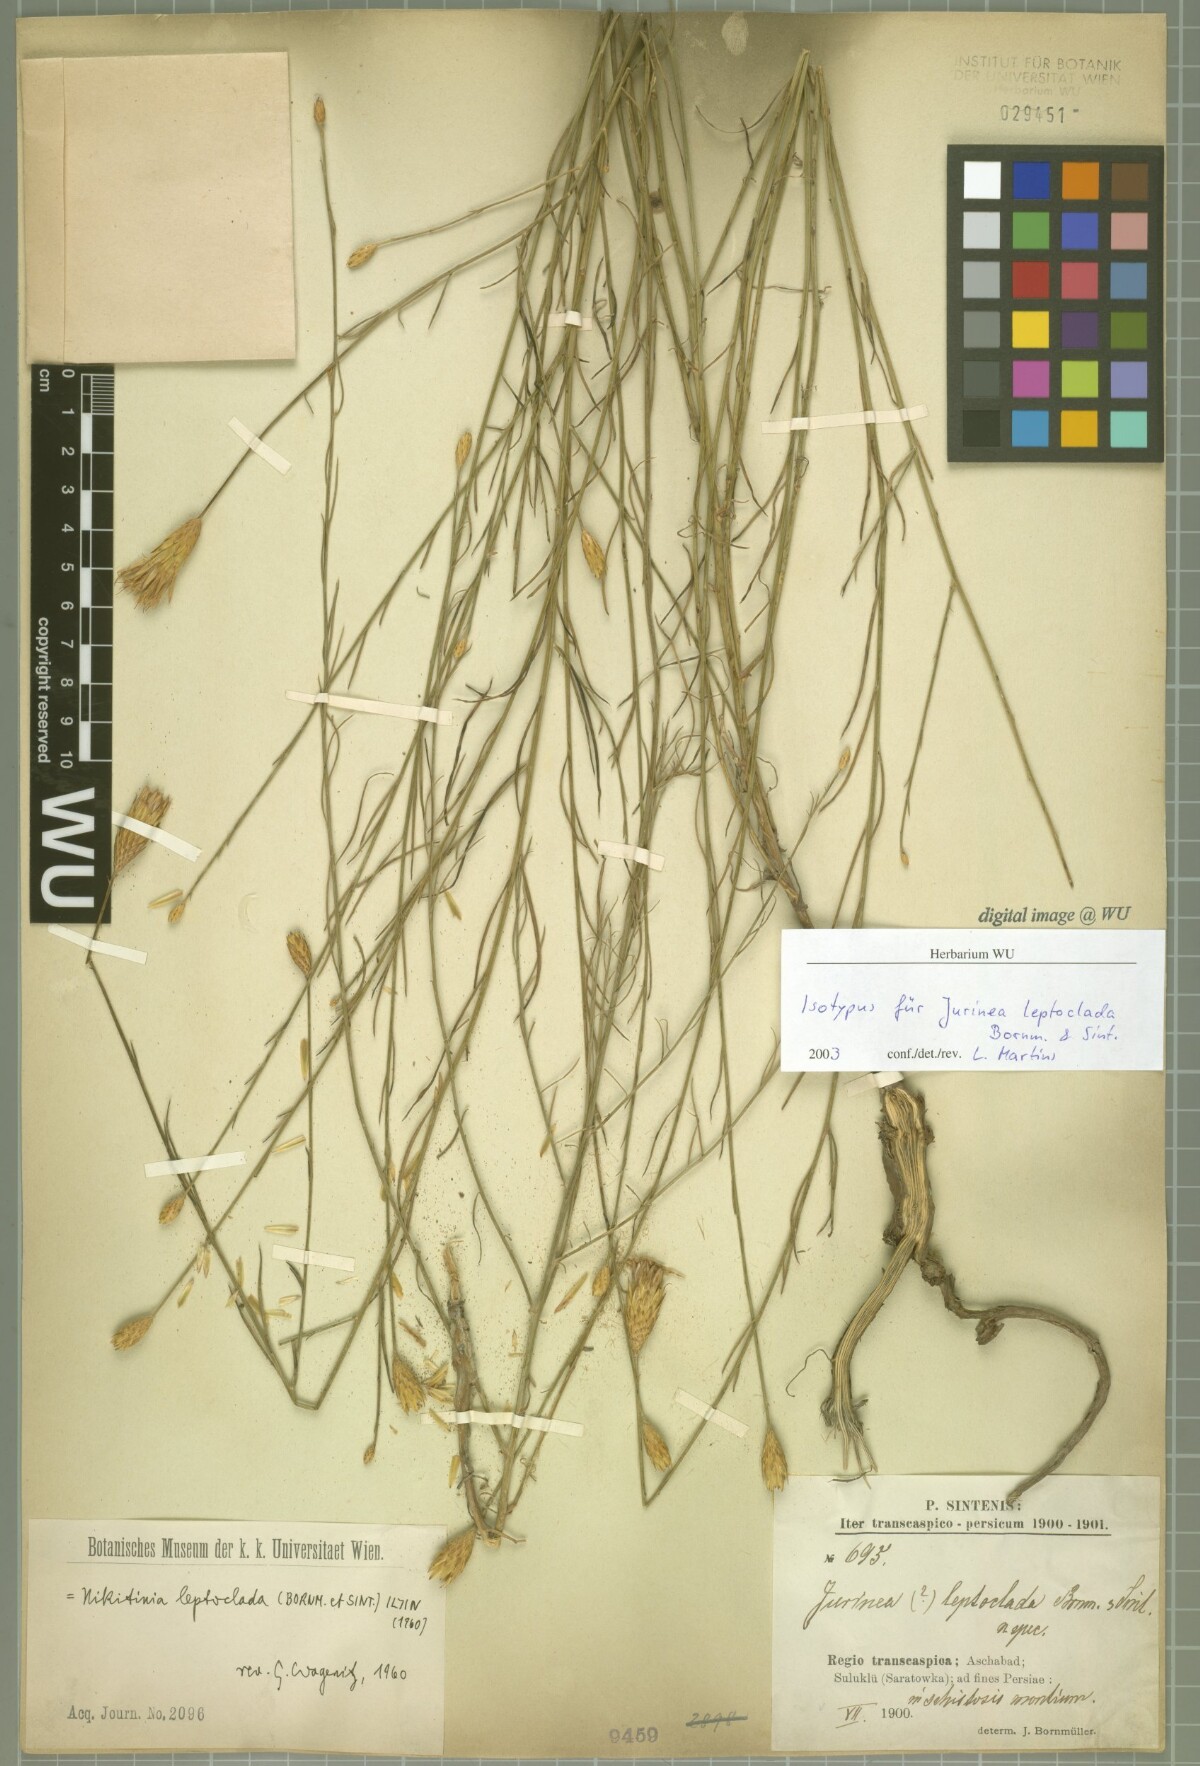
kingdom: Plantae
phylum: Tracheophyta
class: Magnoliopsida
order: Asterales
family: Asteraceae
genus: Klasea
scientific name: Klasea leptoclada
